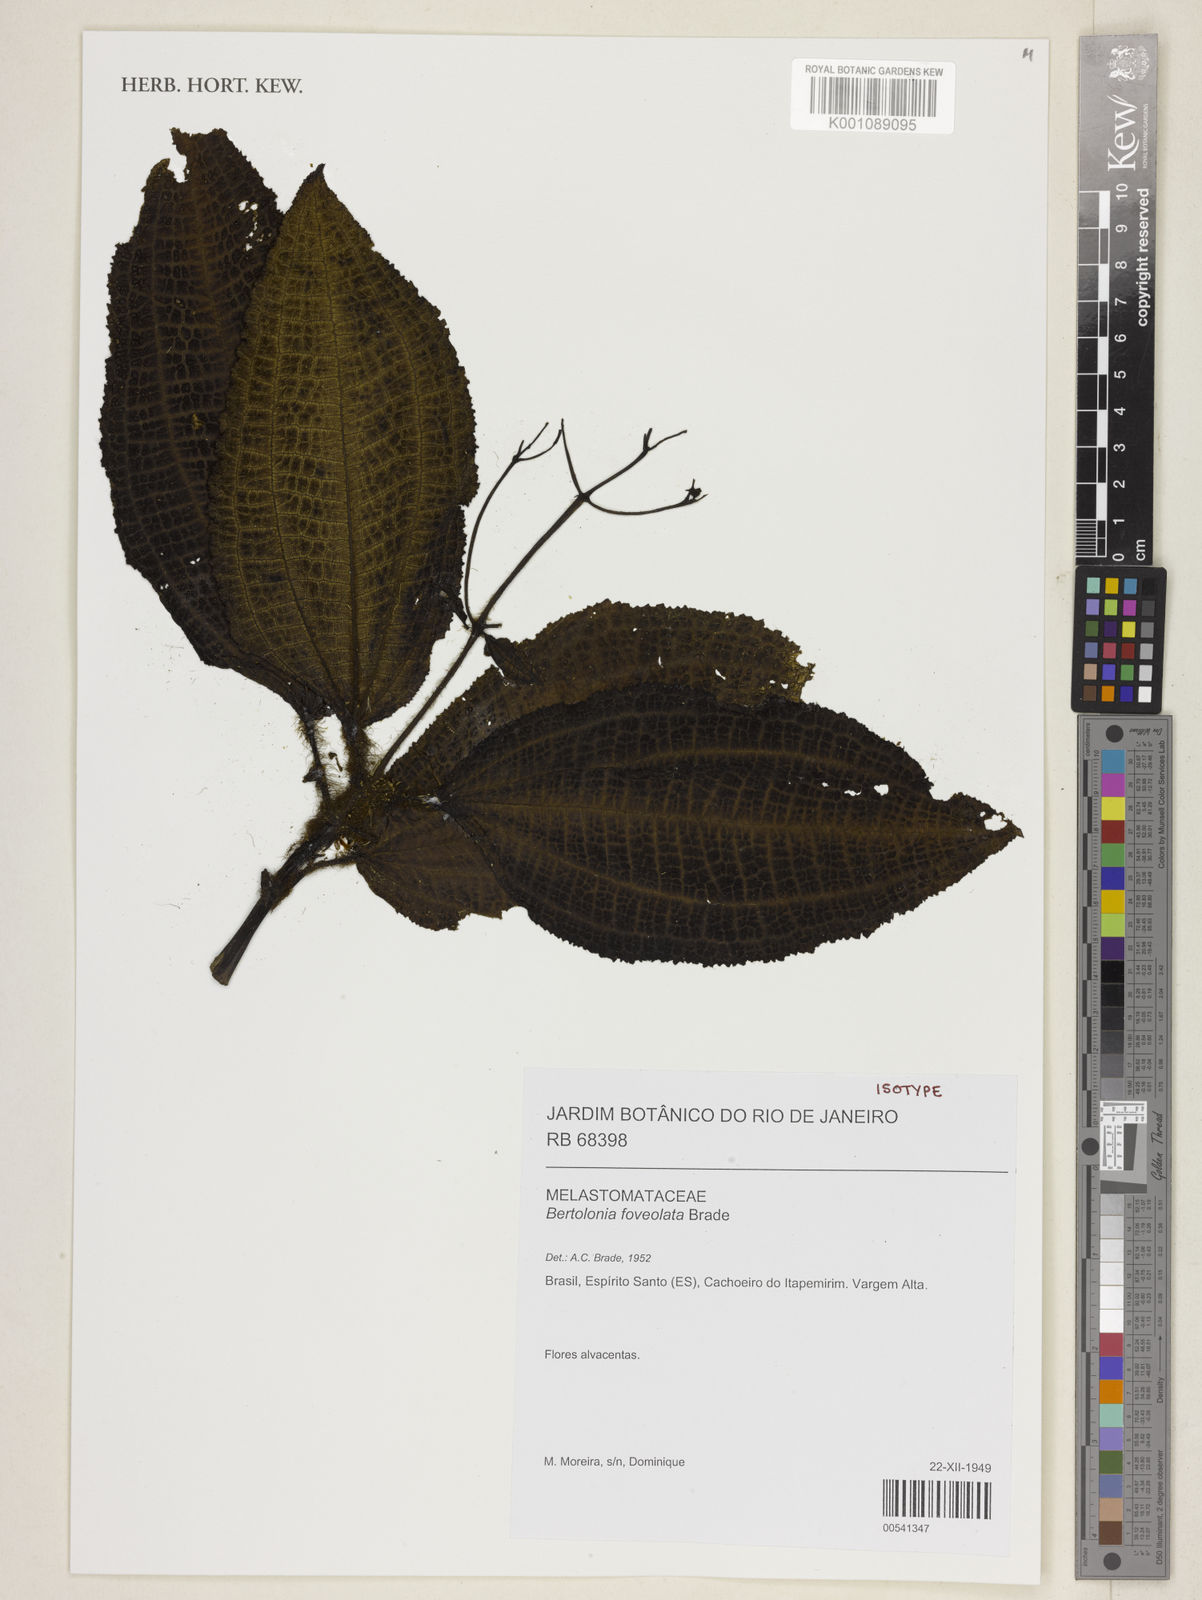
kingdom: Plantae
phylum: Tracheophyta
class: Magnoliopsida
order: Myrtales
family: Melastomataceae
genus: Bertolonia
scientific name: Bertolonia foveolata
